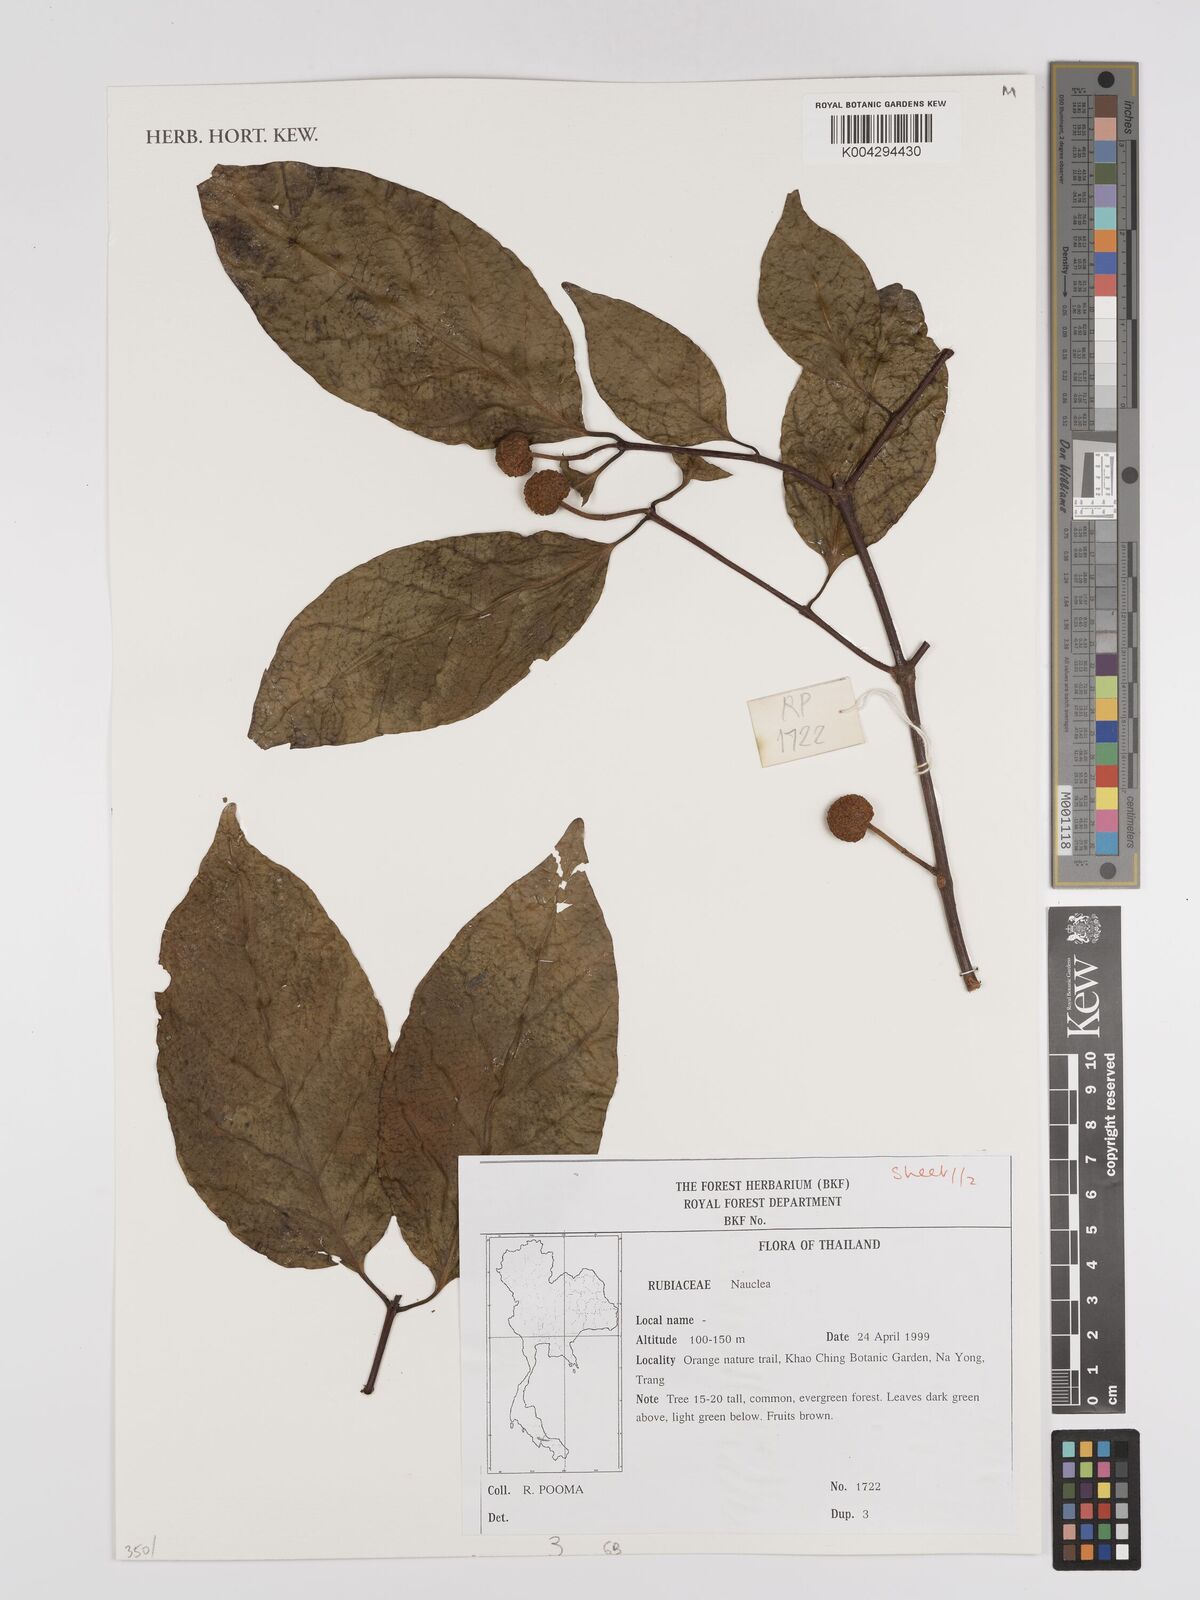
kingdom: Plantae
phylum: Tracheophyta
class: Magnoliopsida
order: Gentianales
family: Rubiaceae
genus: Nauclea
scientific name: Nauclea
